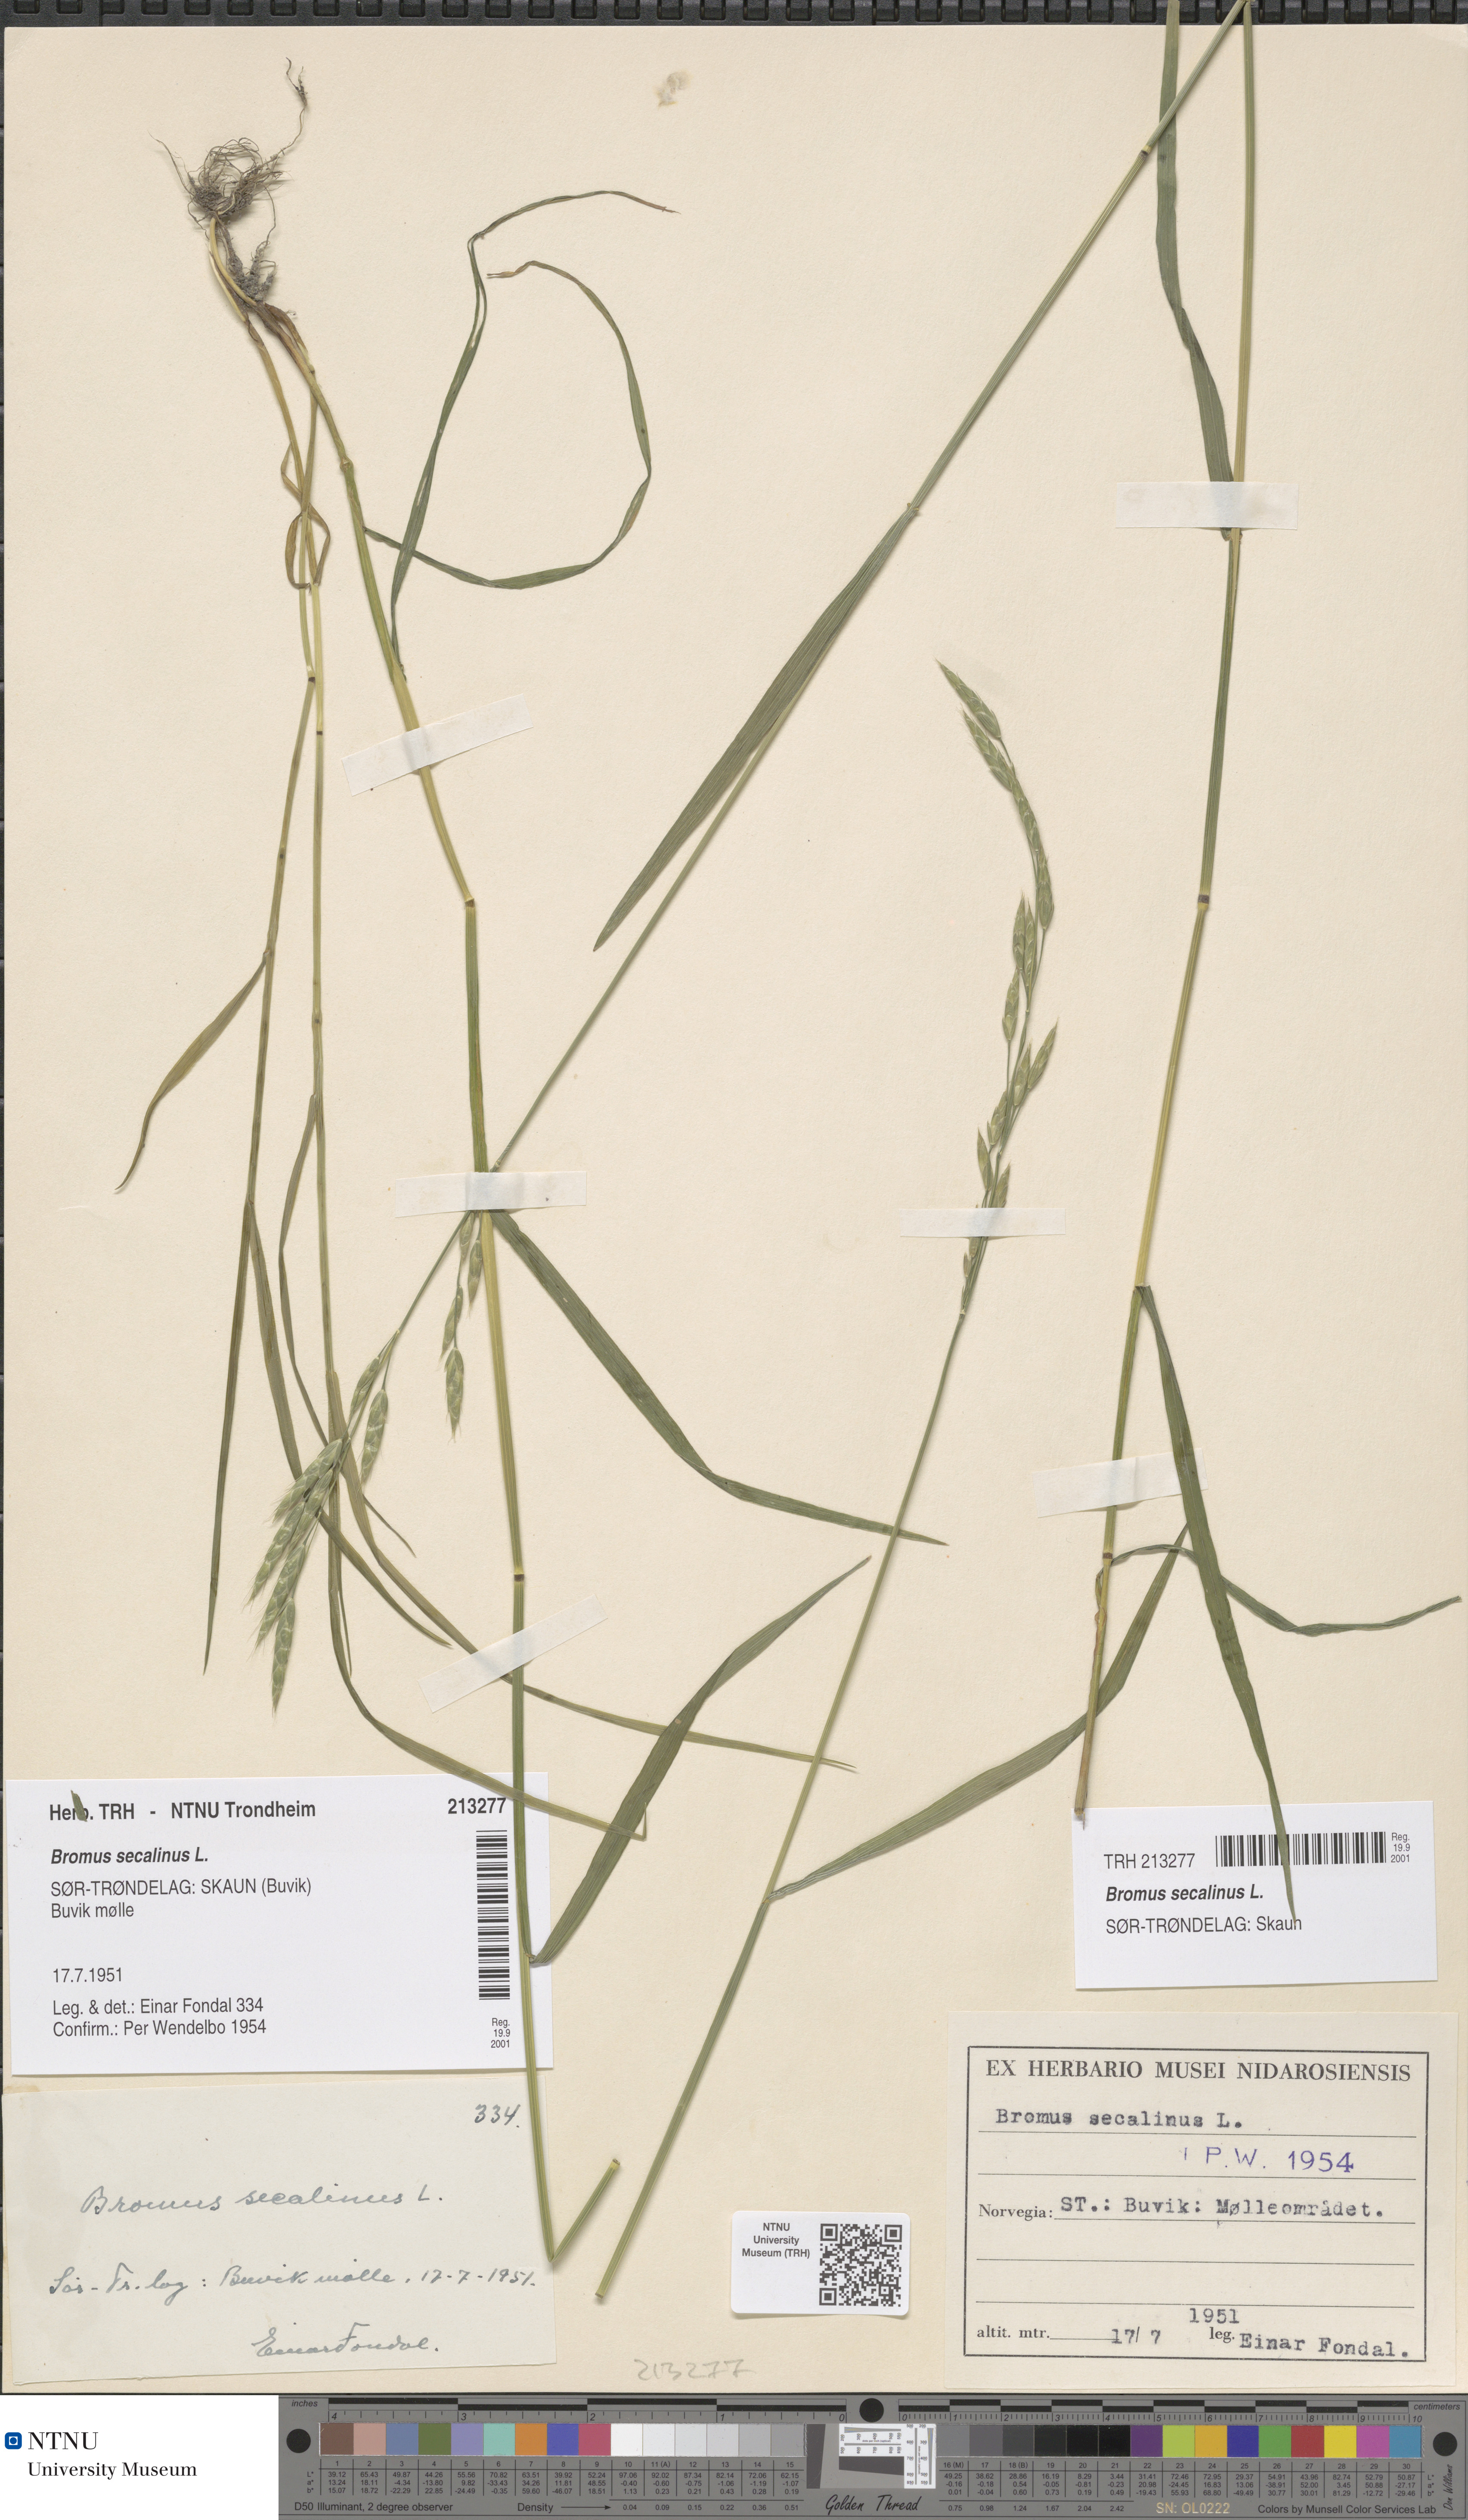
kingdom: Plantae
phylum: Tracheophyta
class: Liliopsida
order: Poales
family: Poaceae
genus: Bromus
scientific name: Bromus secalinus
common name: Rye brome
